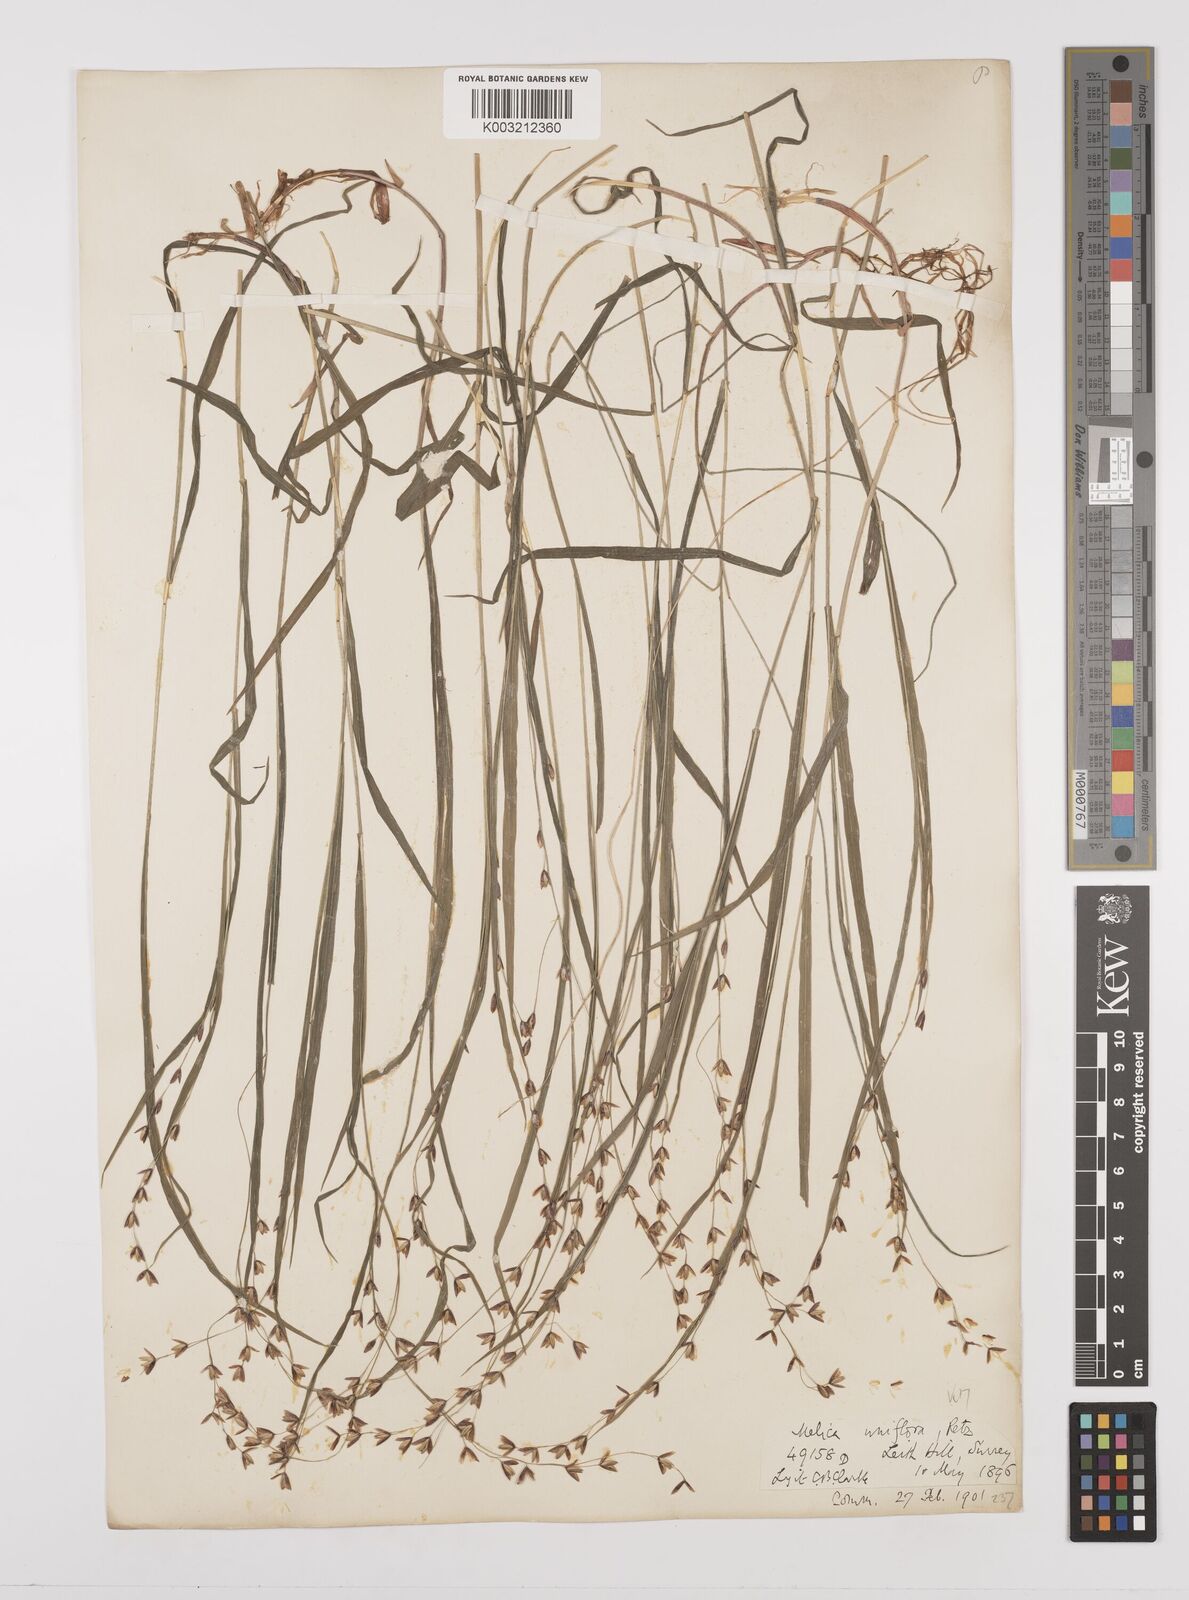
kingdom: Plantae
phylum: Tracheophyta
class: Liliopsida
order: Poales
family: Poaceae
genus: Melica
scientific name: Melica uniflora
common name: Wood melick
